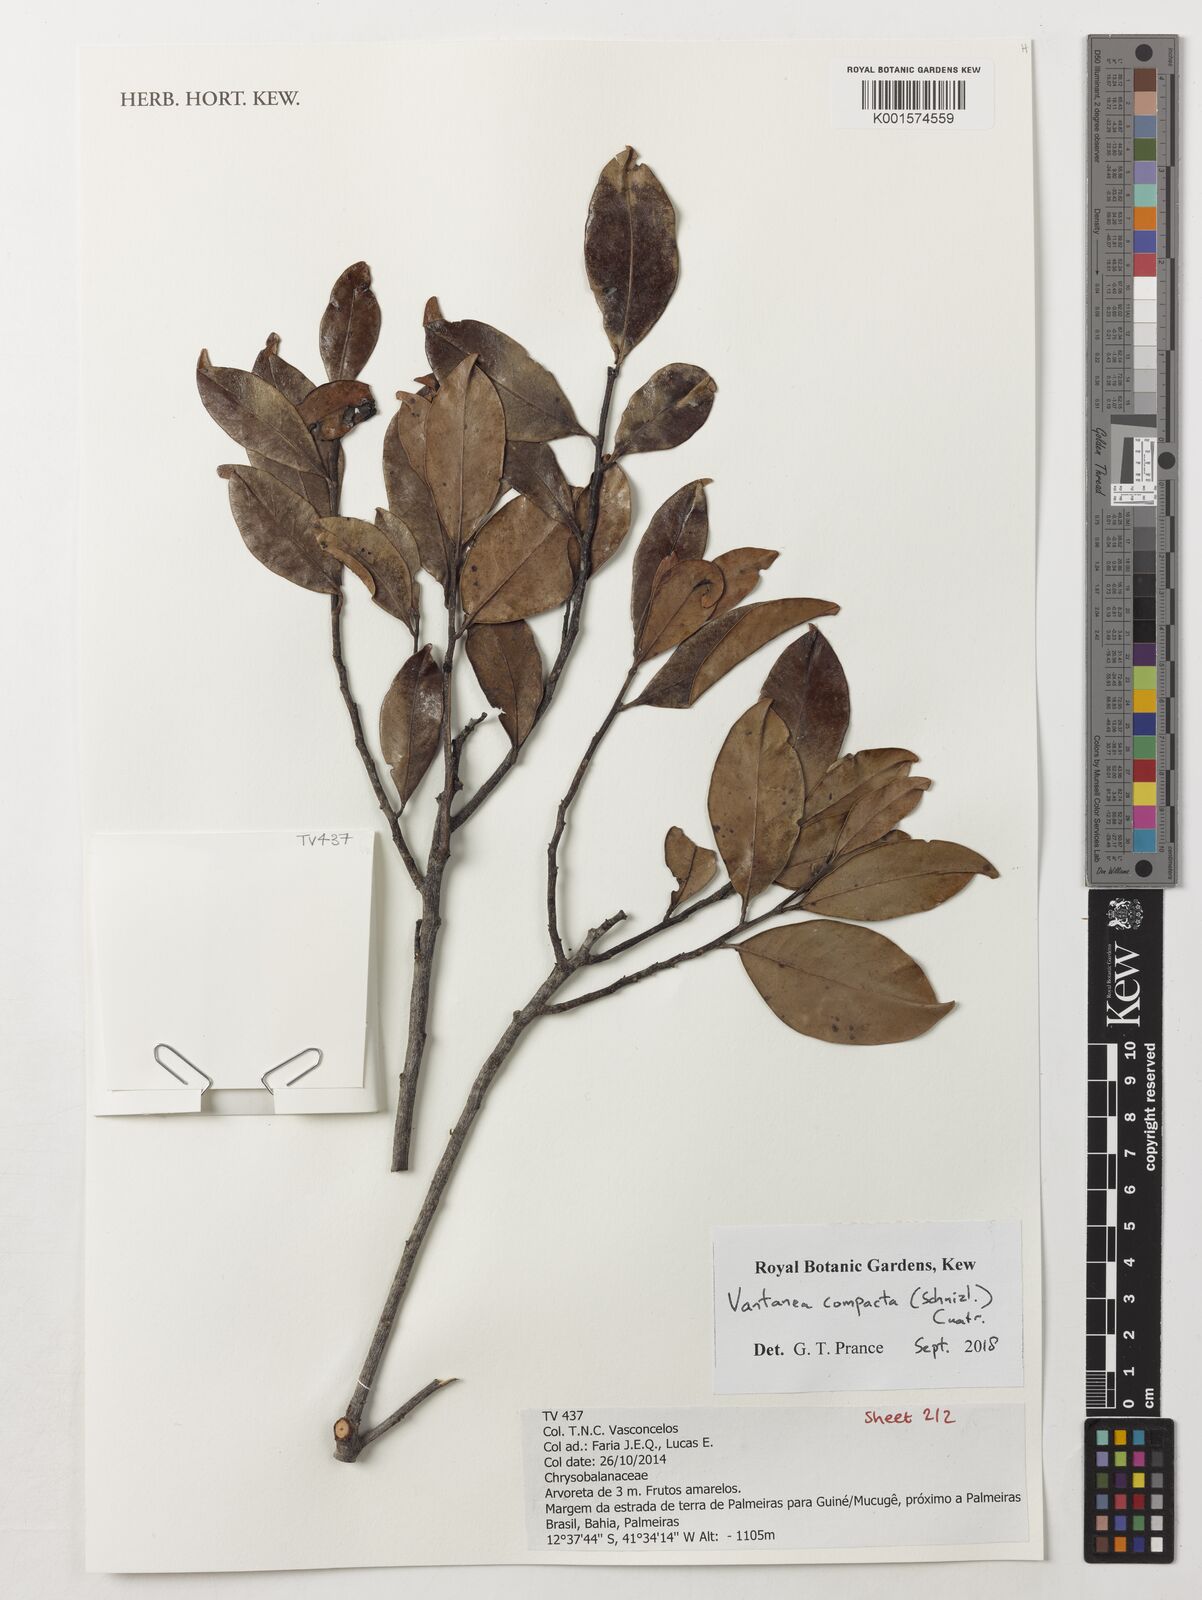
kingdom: Plantae
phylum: Tracheophyta
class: Magnoliopsida
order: Malpighiales
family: Humiriaceae
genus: Vantanea
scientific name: Vantanea compacta
